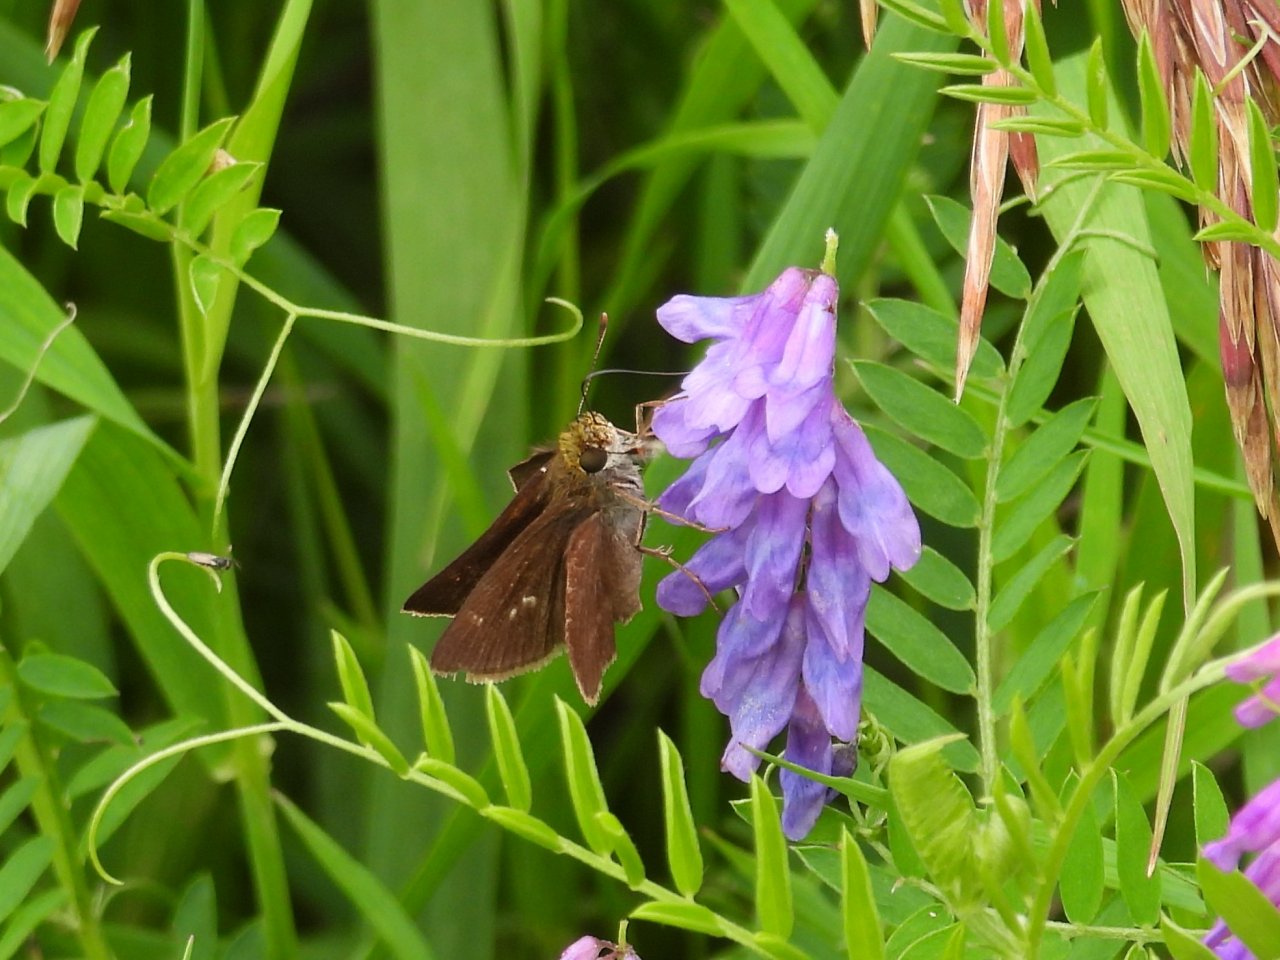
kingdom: Animalia
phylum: Arthropoda
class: Insecta
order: Lepidoptera
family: Hesperiidae
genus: Euphyes
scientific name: Euphyes vestris
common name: Dun Skipper
